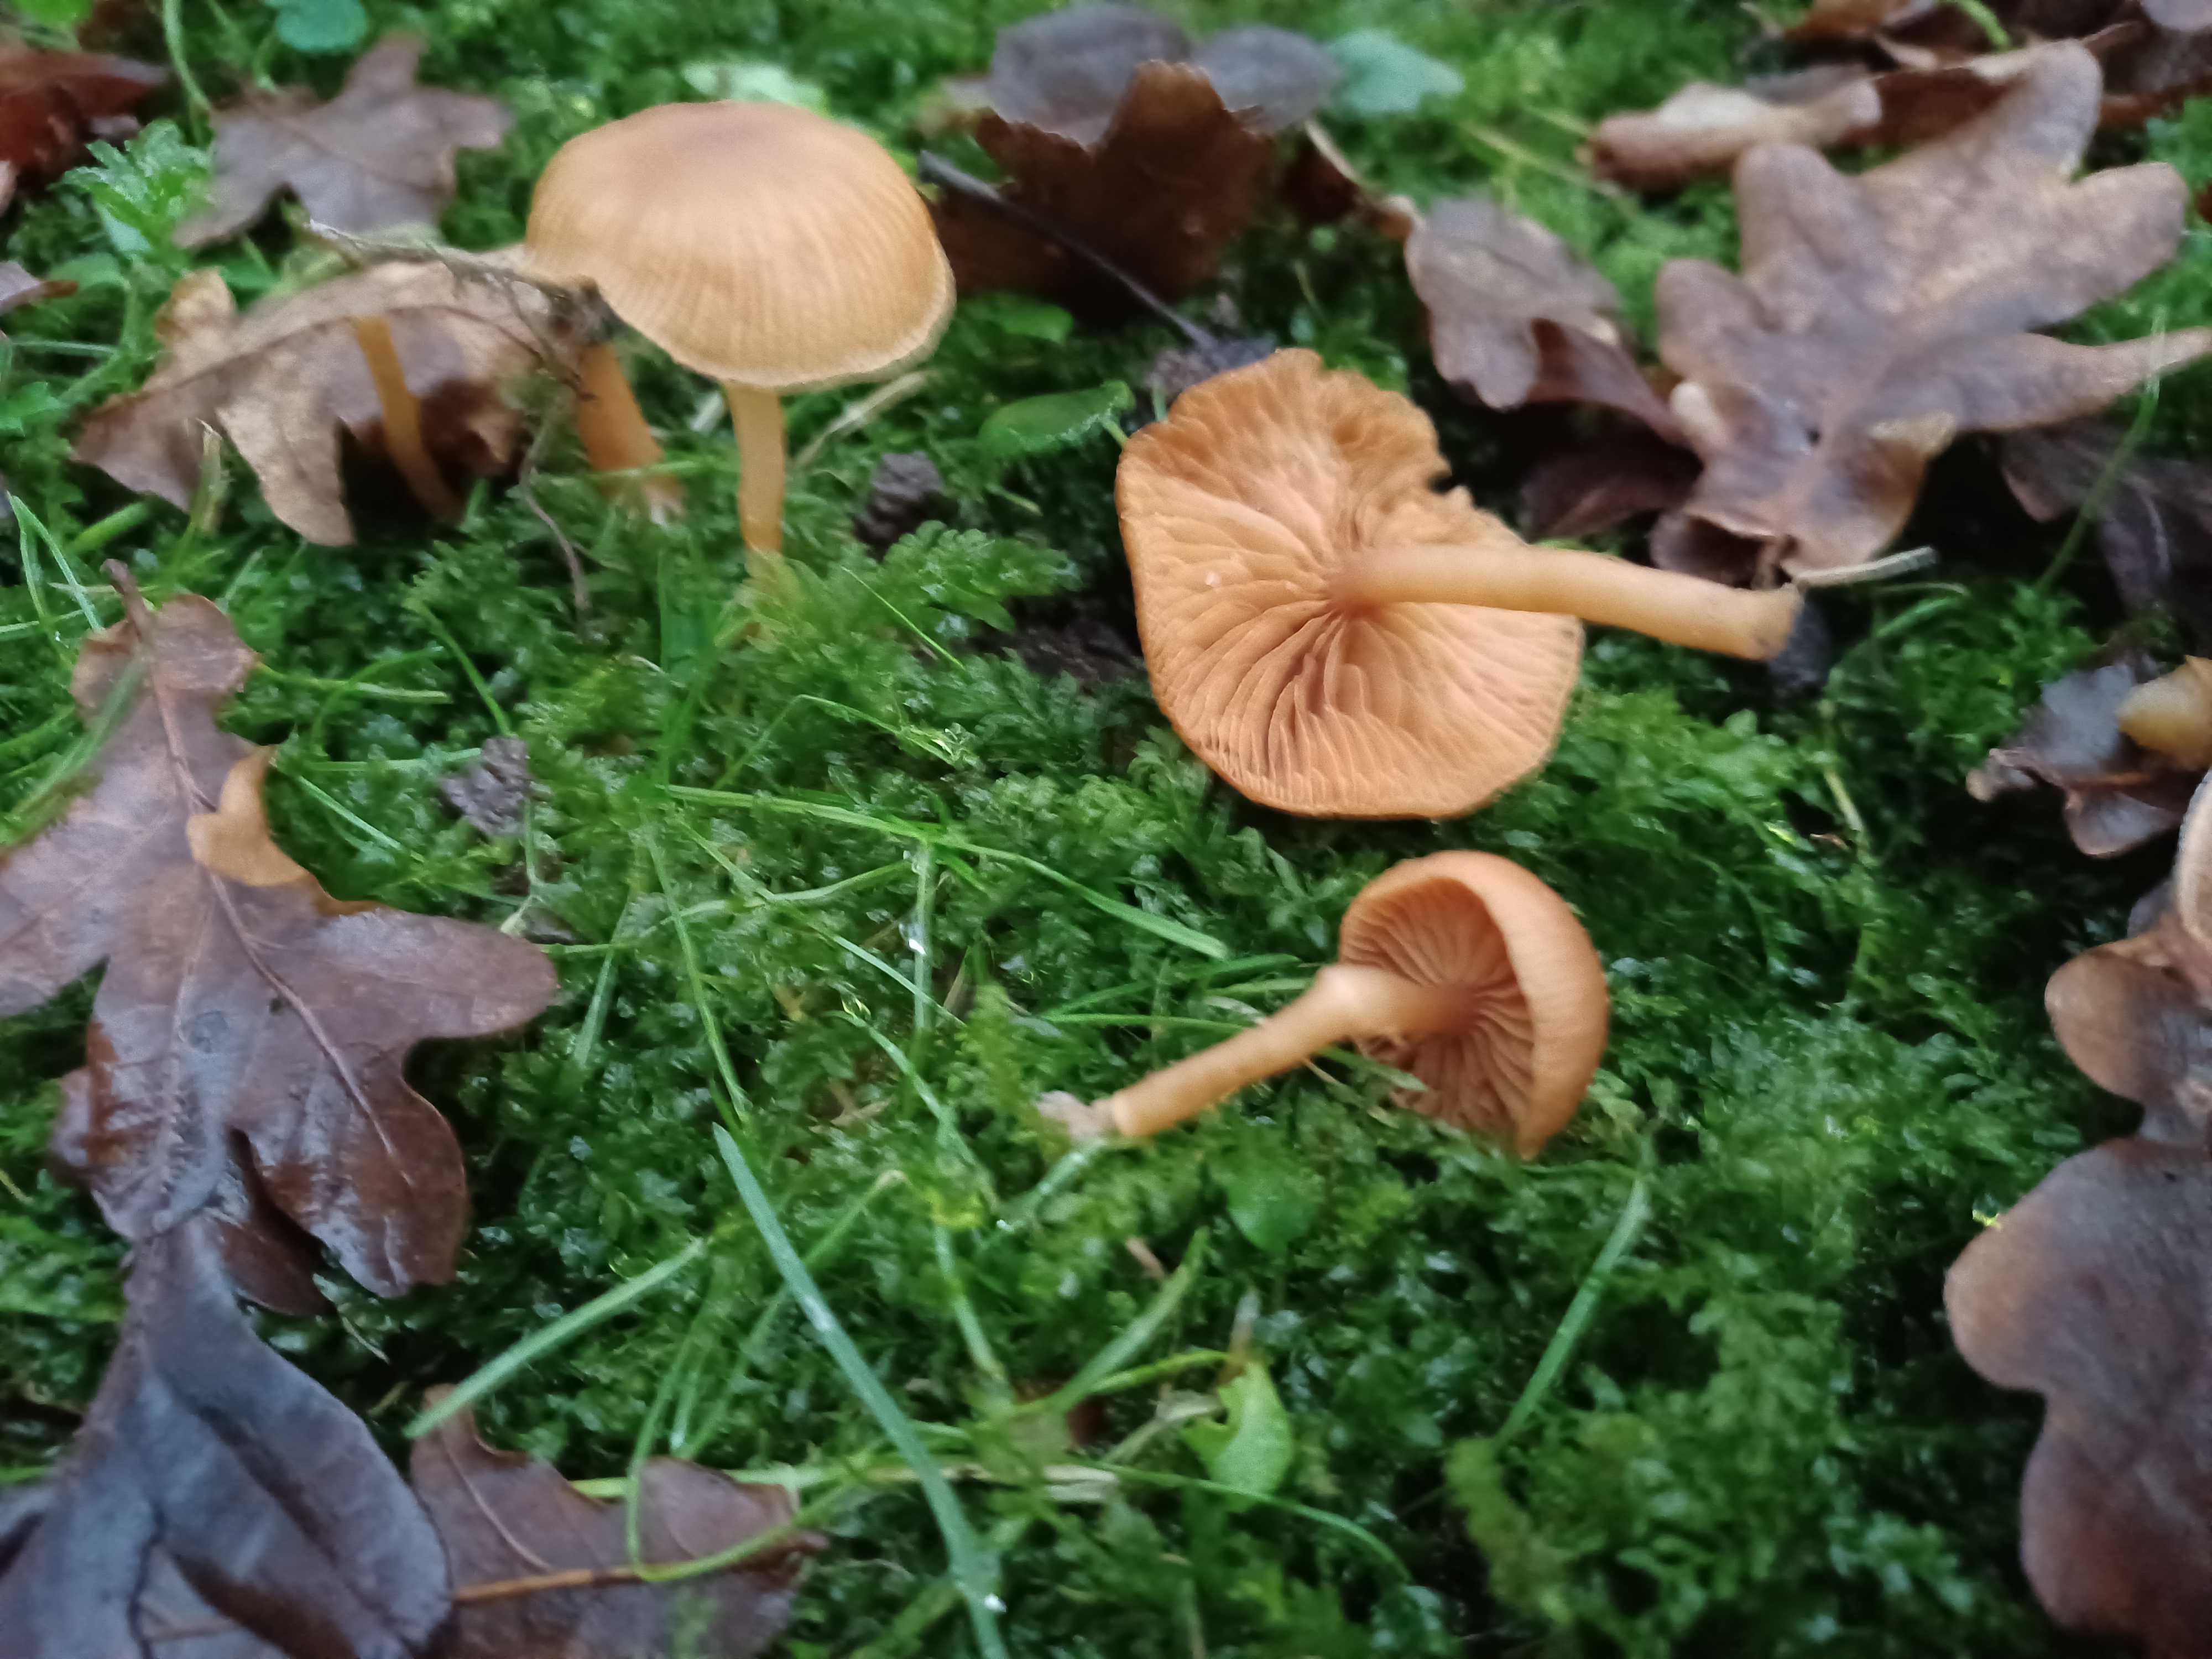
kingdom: Fungi
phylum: Basidiomycota
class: Agaricomycetes
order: Agaricales
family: Tubariaceae
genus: Tubaria
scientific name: Tubaria furfuracea
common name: kliddet fnughat
